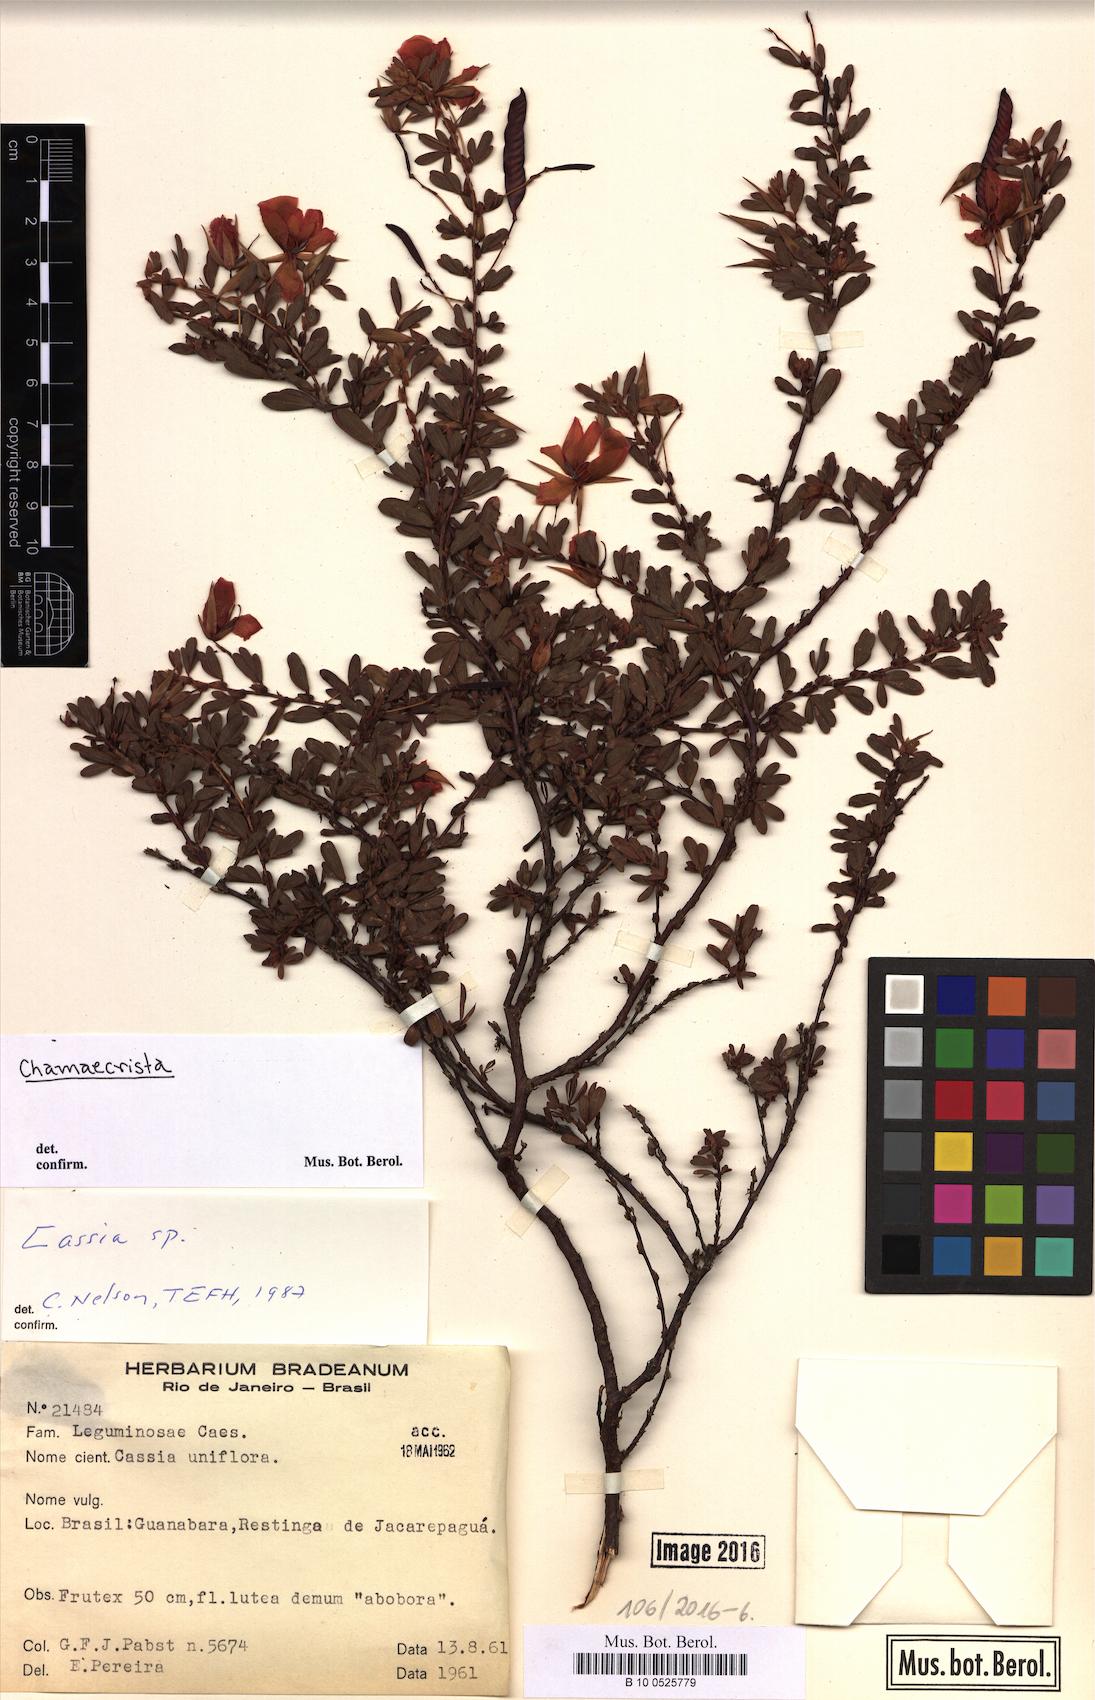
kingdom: Plantae
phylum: Tracheophyta
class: Magnoliopsida
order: Fabales
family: Fabaceae
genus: Chamaecrista
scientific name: Chamaecrista
